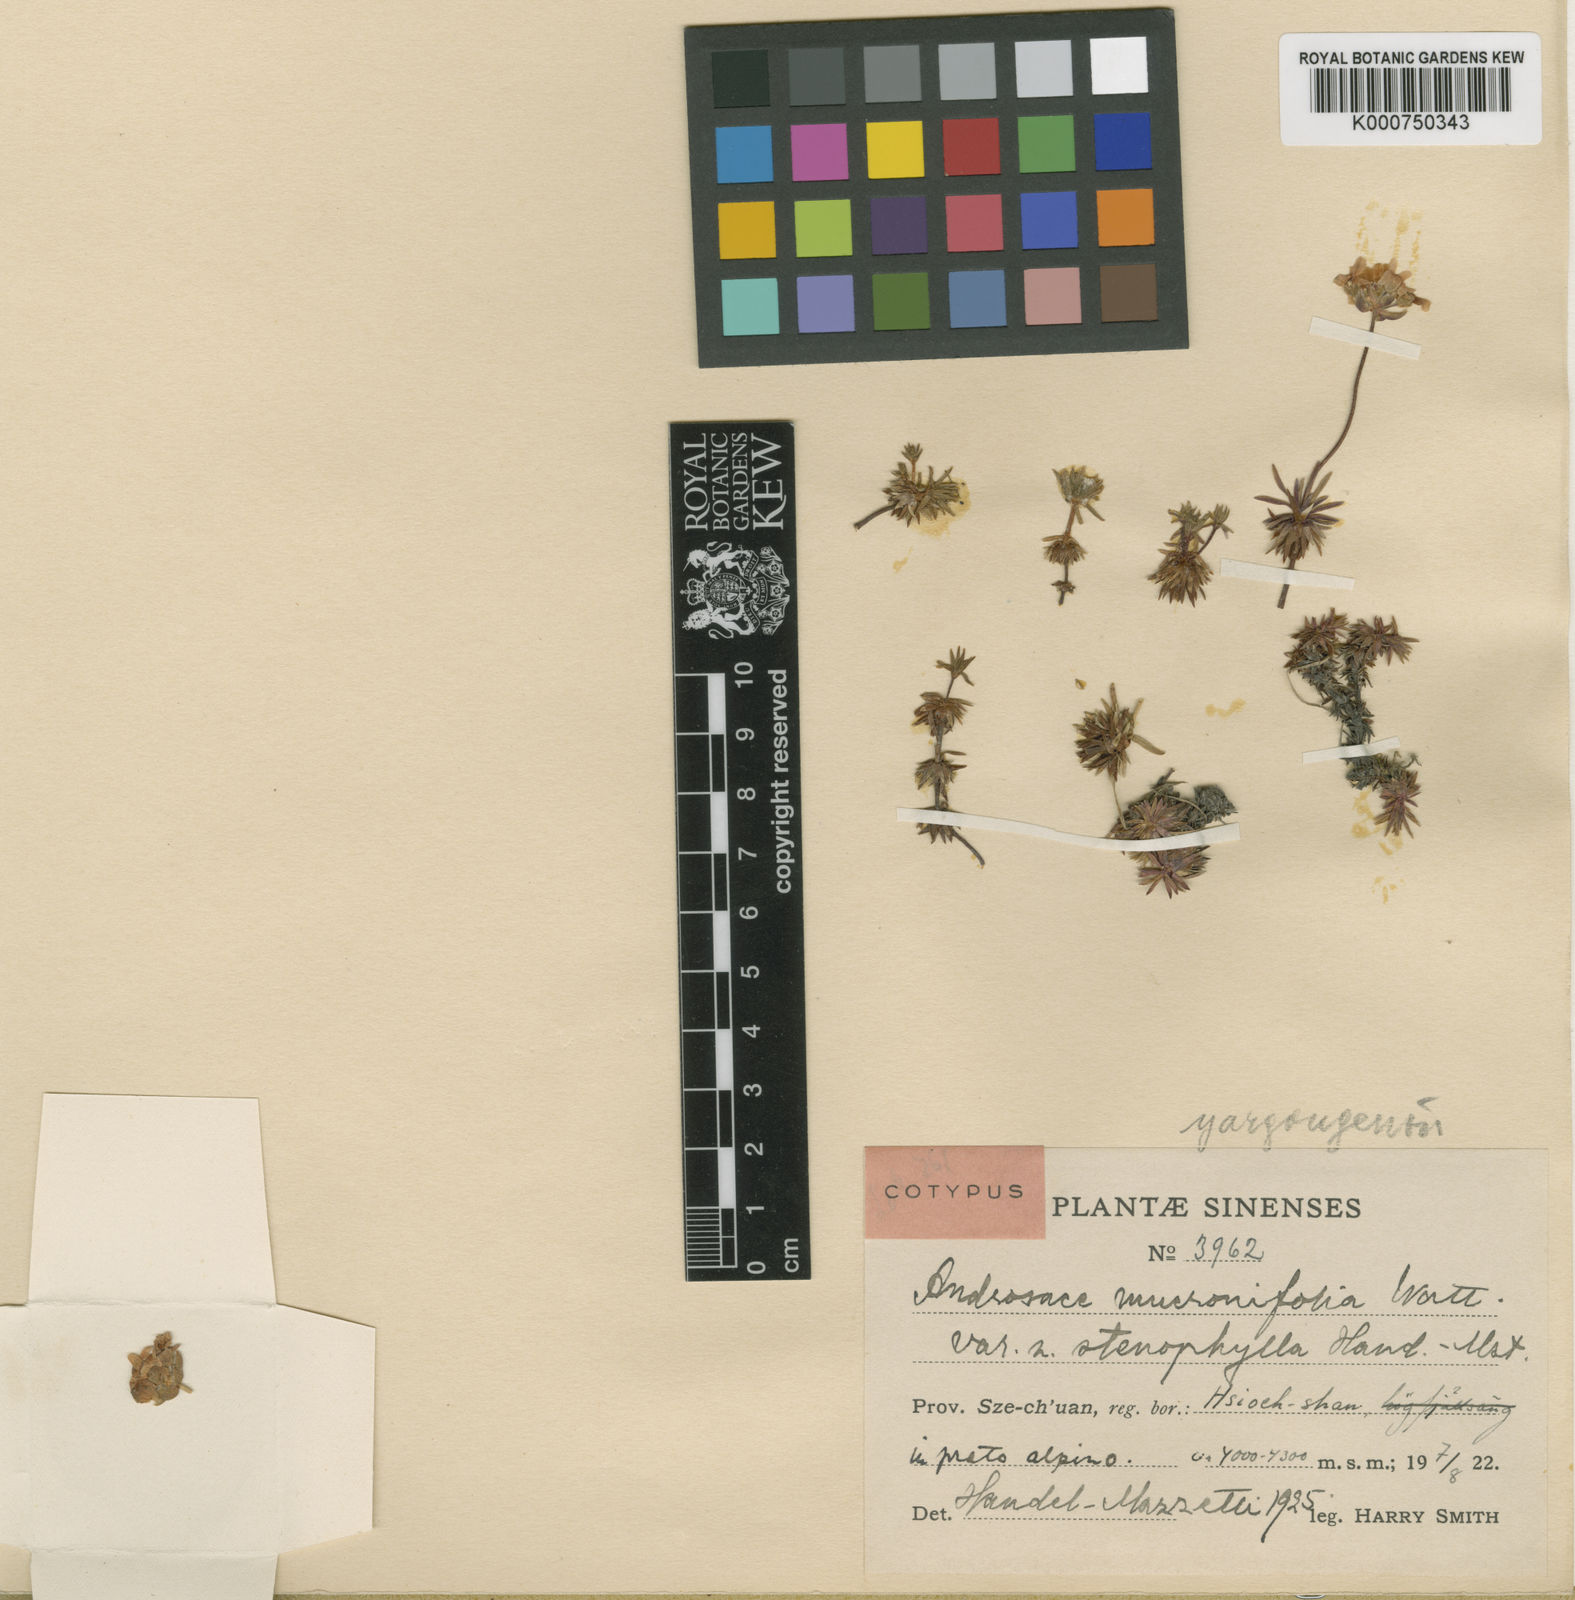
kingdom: Plantae
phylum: Tracheophyta
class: Magnoliopsida
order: Ericales
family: Primulaceae
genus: Androsace
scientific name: Androsace yargongensis
